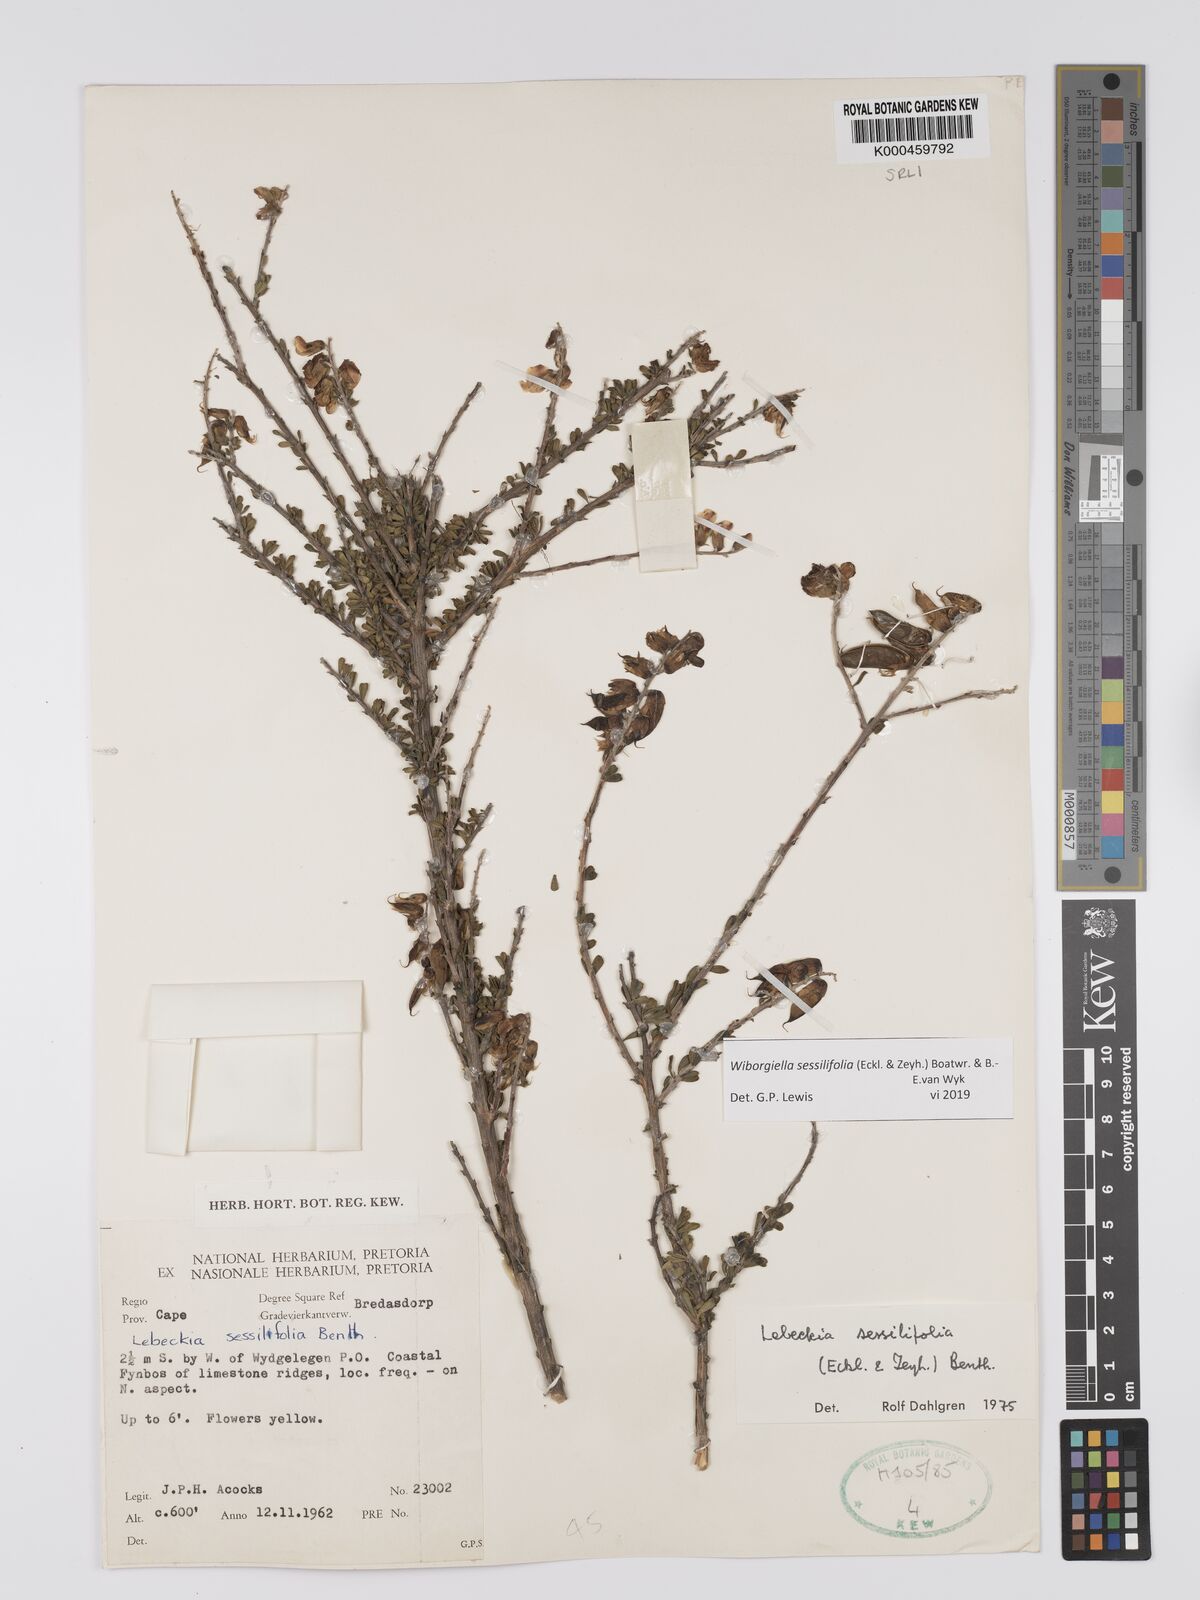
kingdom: Plantae
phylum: Tracheophyta
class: Magnoliopsida
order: Fabales
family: Fabaceae
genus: Wiborgiella
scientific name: Wiborgiella sessilifolia
